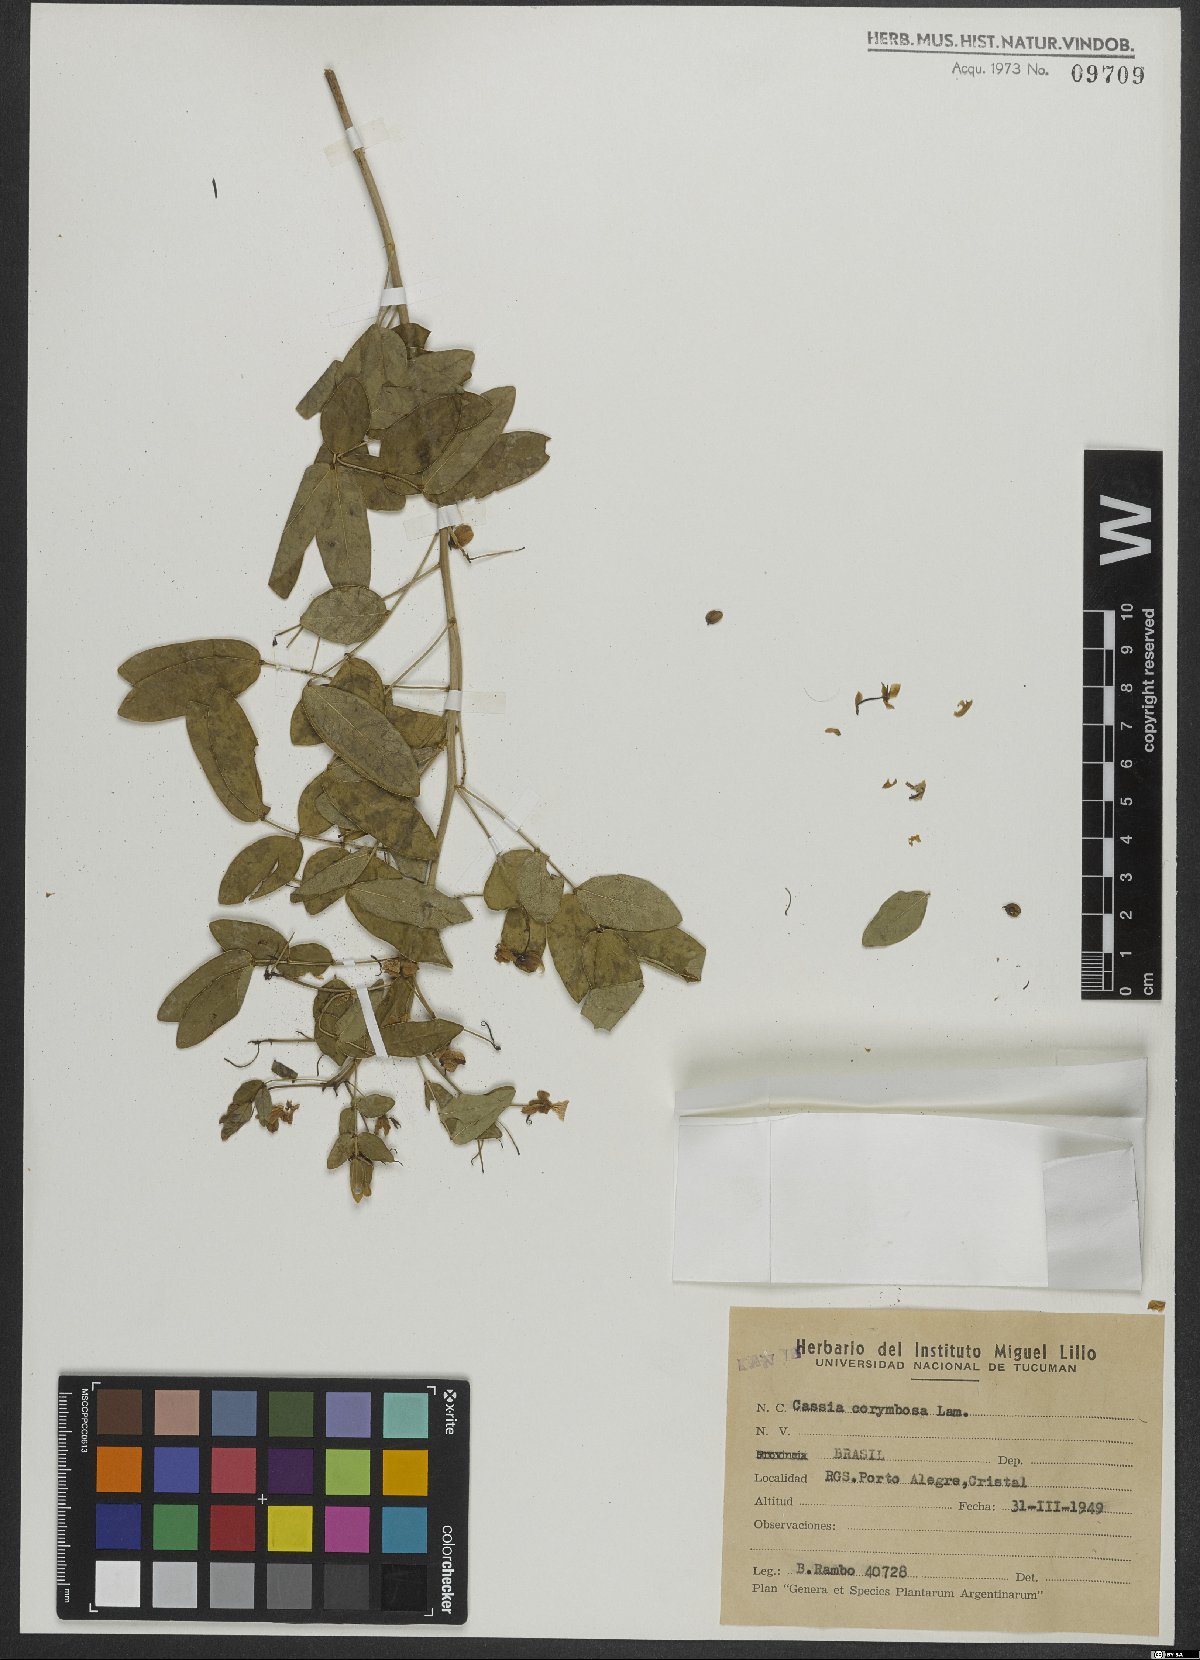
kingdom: Plantae
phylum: Tracheophyta
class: Magnoliopsida
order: Fabales
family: Fabaceae
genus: Senna
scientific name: Senna corymbosa
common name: Argentine senna
